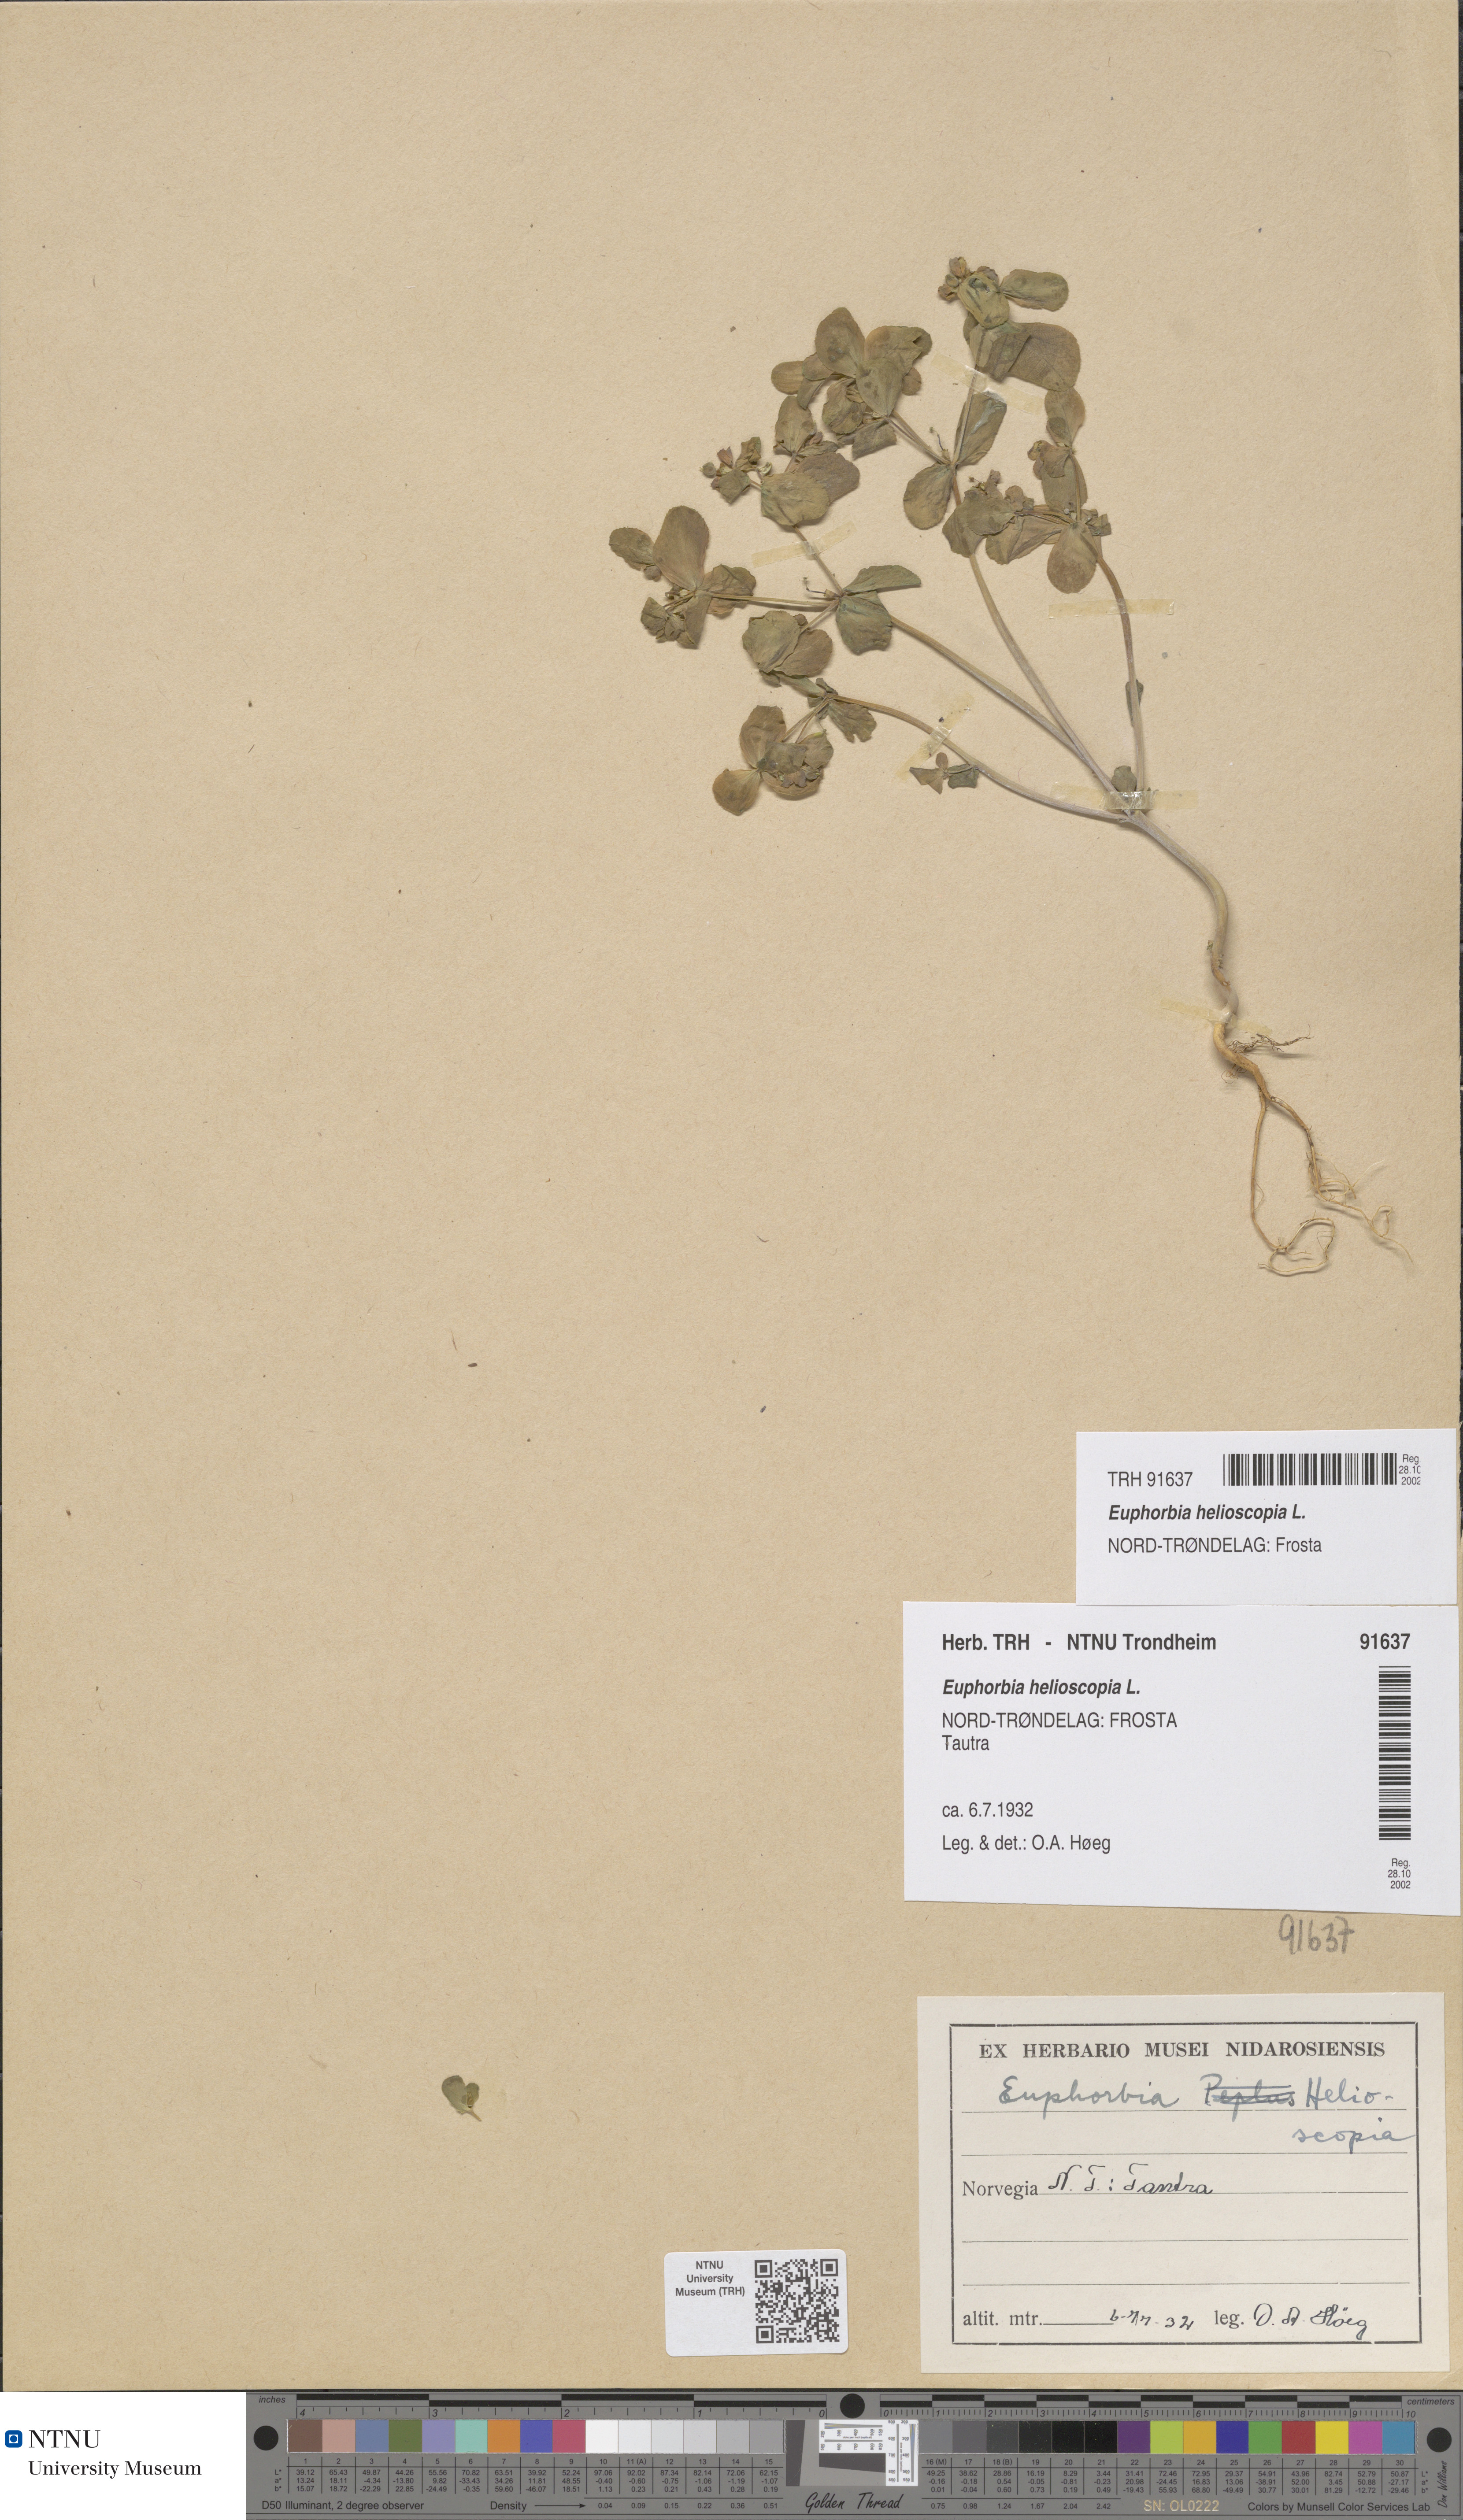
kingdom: Plantae
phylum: Tracheophyta
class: Magnoliopsida
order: Malpighiales
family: Euphorbiaceae
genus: Euphorbia
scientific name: Euphorbia helioscopia
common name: Sun spurge
